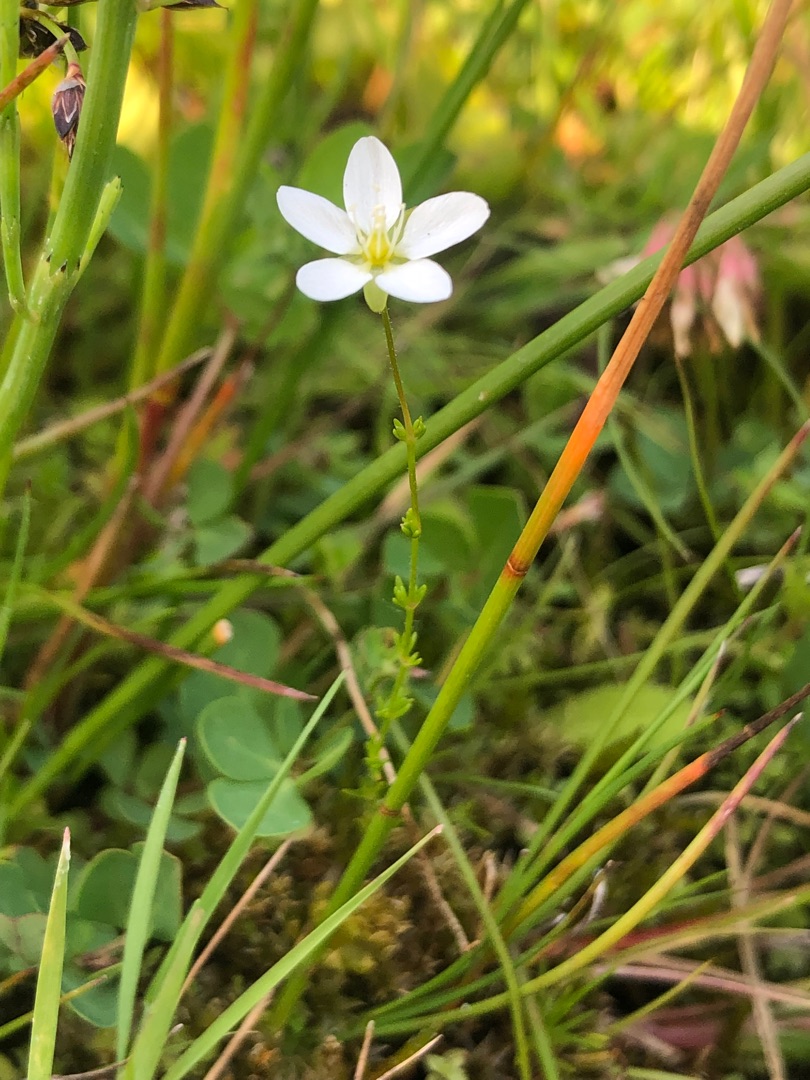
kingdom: Plantae
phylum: Tracheophyta
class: Magnoliopsida
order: Caryophyllales
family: Caryophyllaceae
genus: Sagina
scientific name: Sagina nodosa
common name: Knude-firling
